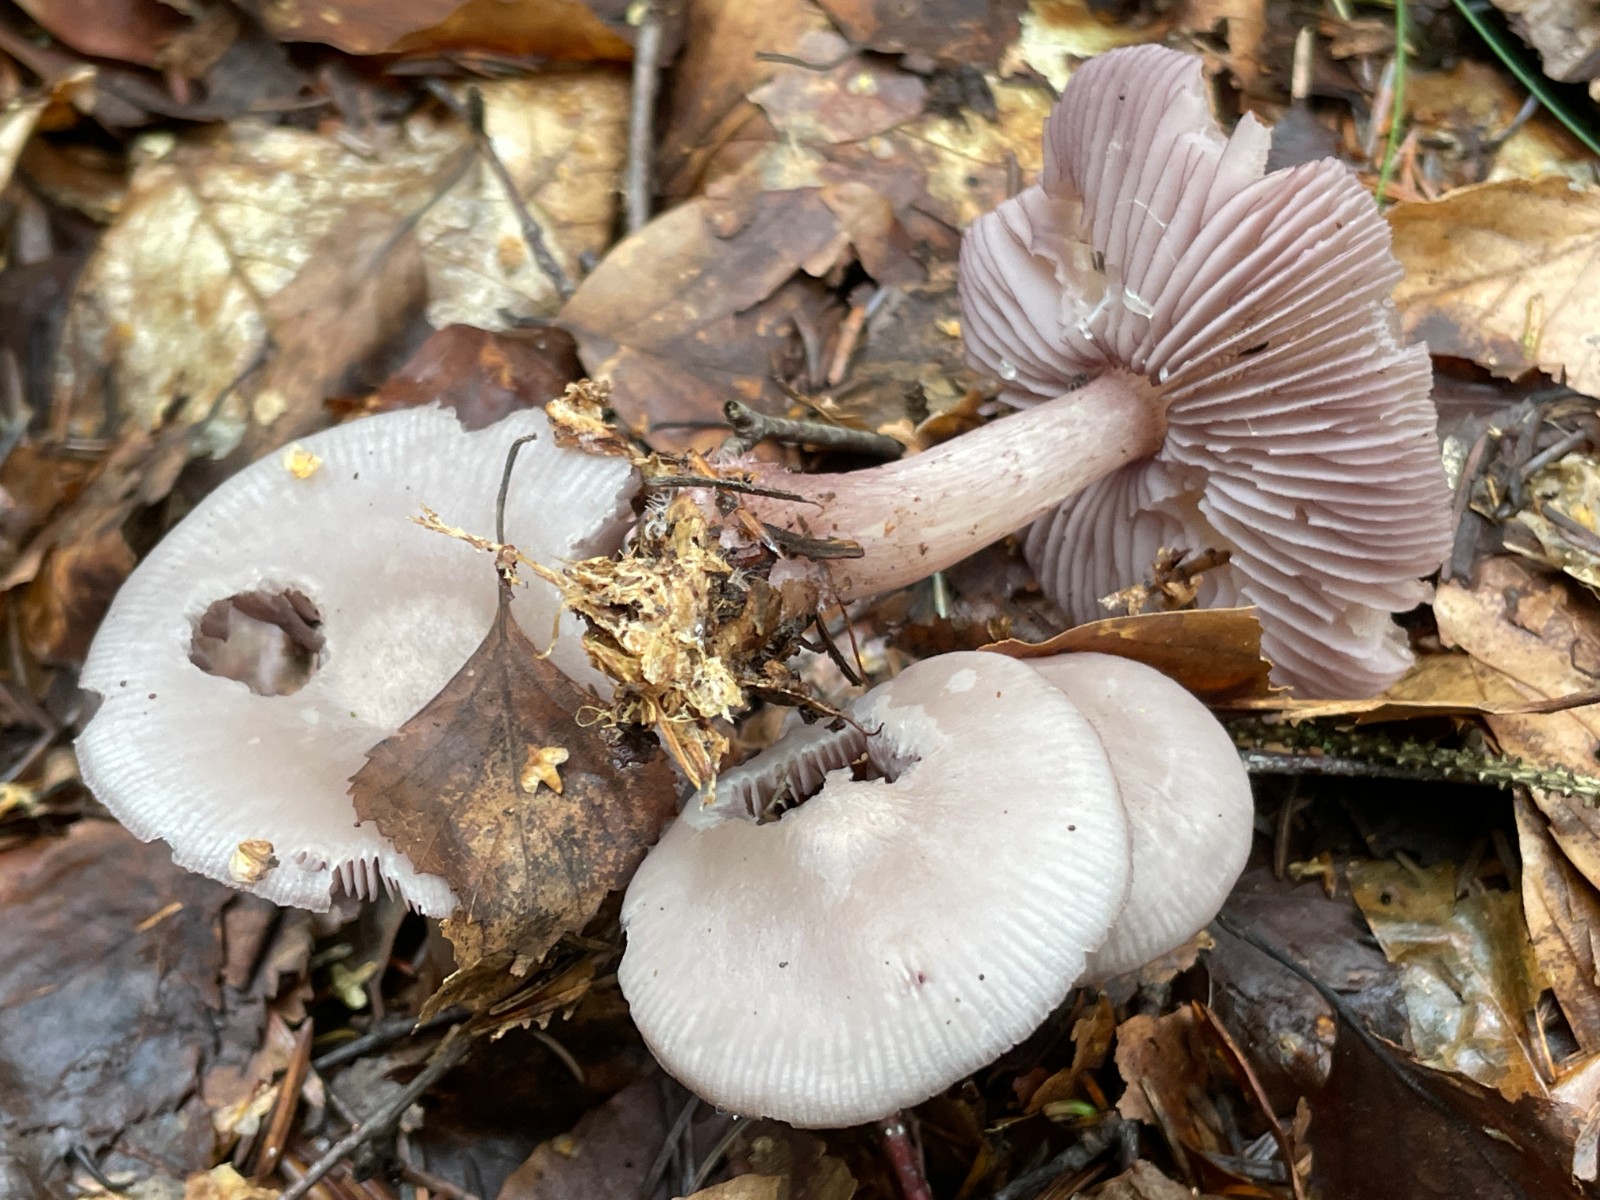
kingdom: Fungi
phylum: Basidiomycota
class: Agaricomycetes
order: Agaricales
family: Mycenaceae
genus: Mycena
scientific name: Mycena pelianthina
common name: mørkbladet huesvamp
